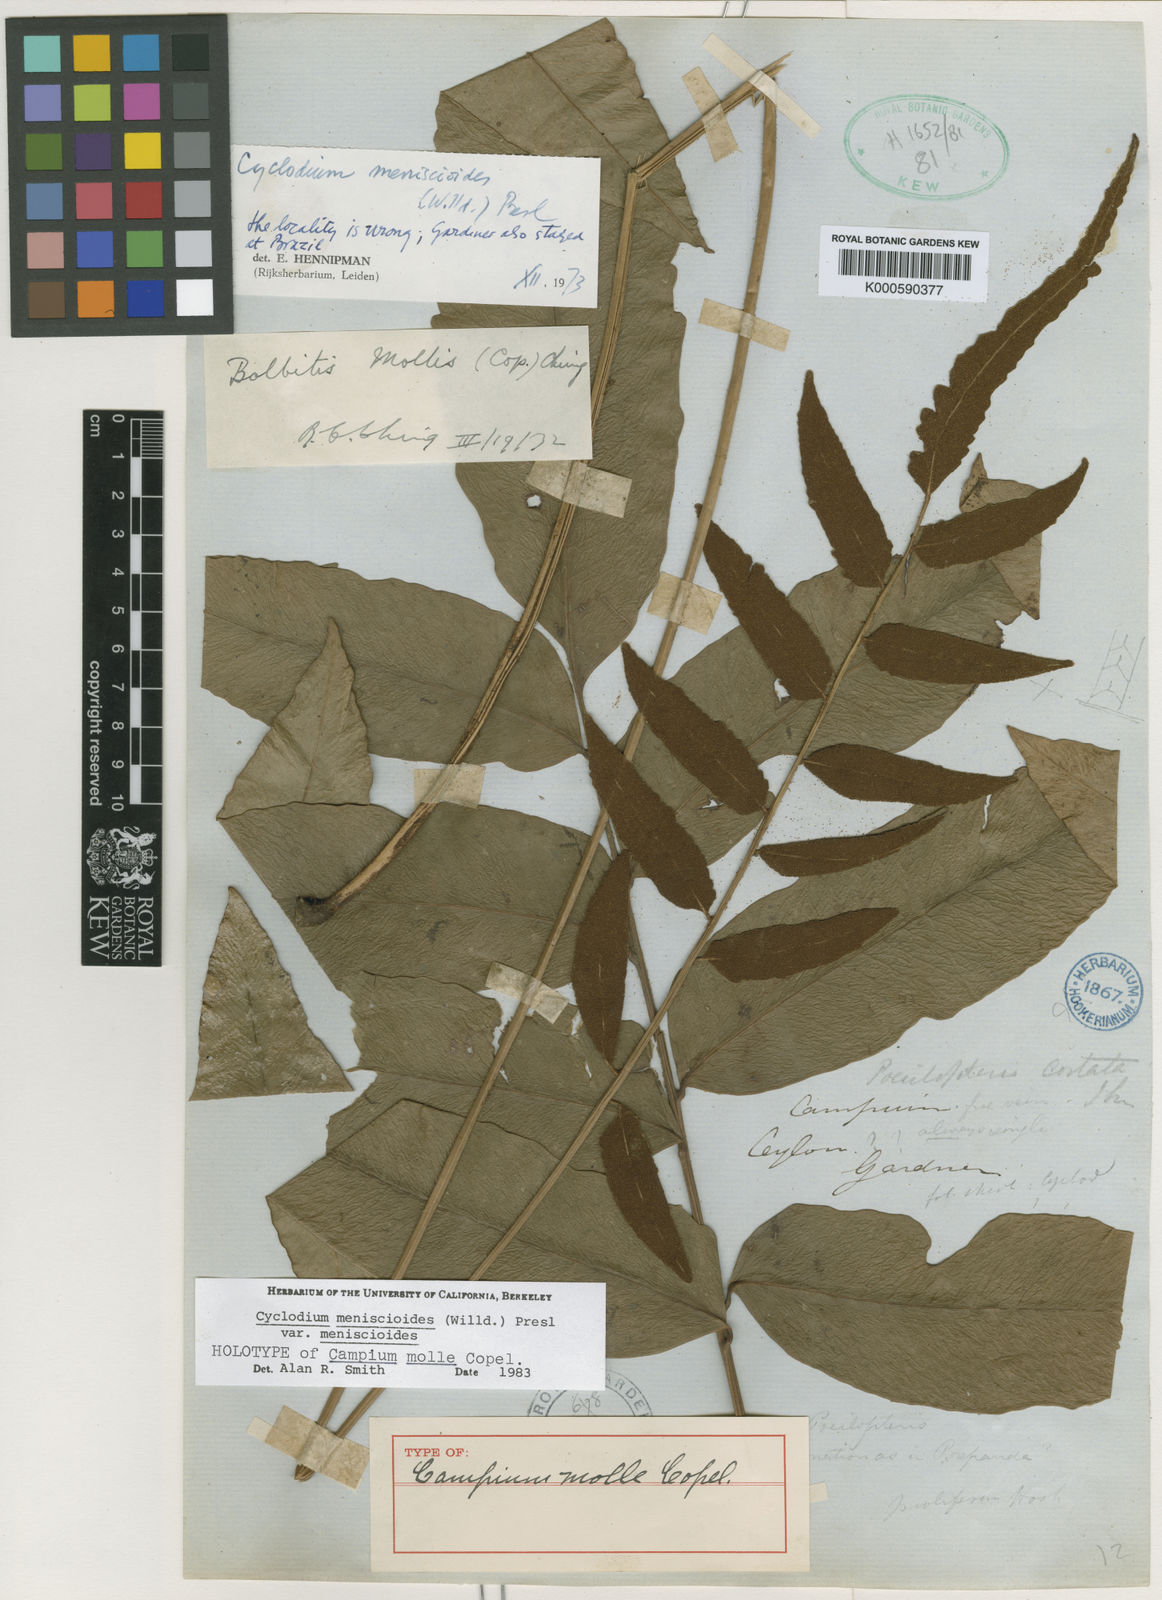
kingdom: Plantae
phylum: Tracheophyta
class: Polypodiopsida
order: Polypodiales
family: Dryopteridaceae
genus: Cyclodium
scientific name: Cyclodium meniscioides
